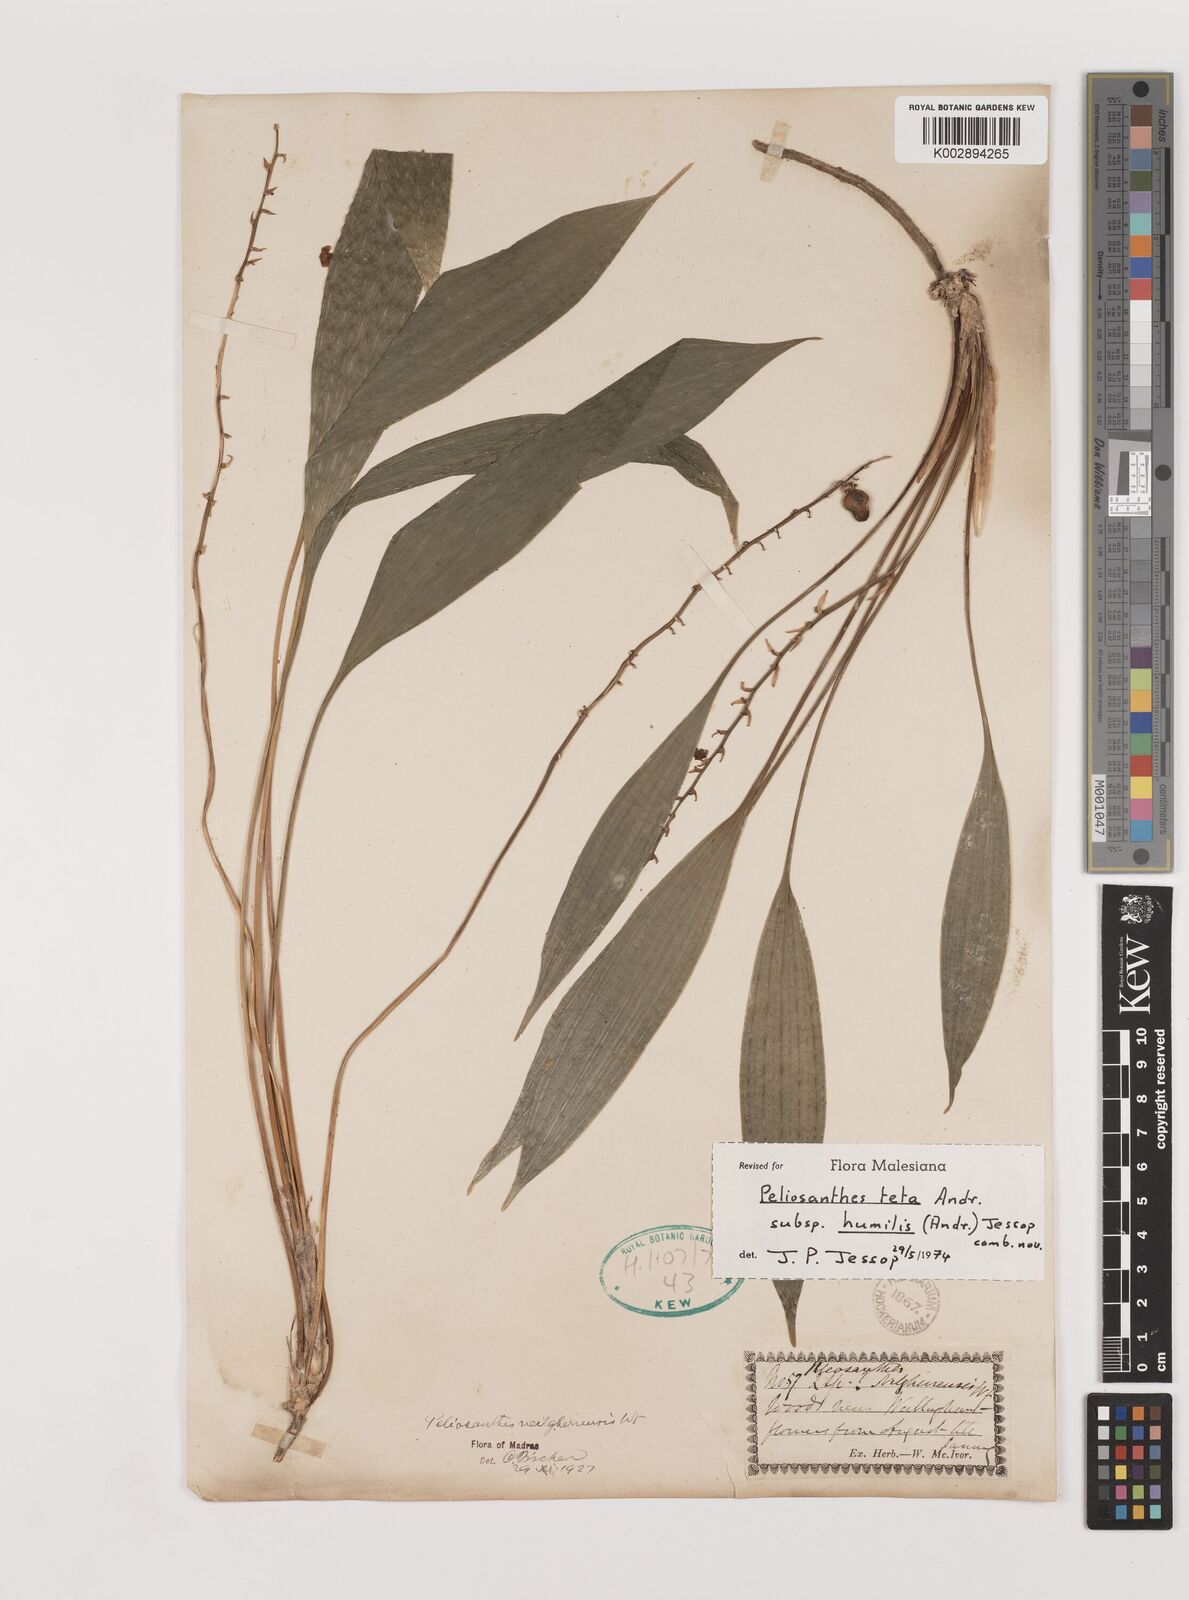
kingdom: Plantae
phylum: Tracheophyta
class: Liliopsida
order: Asparagales
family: Asparagaceae
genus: Peliosanthes
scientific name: Peliosanthes teta
